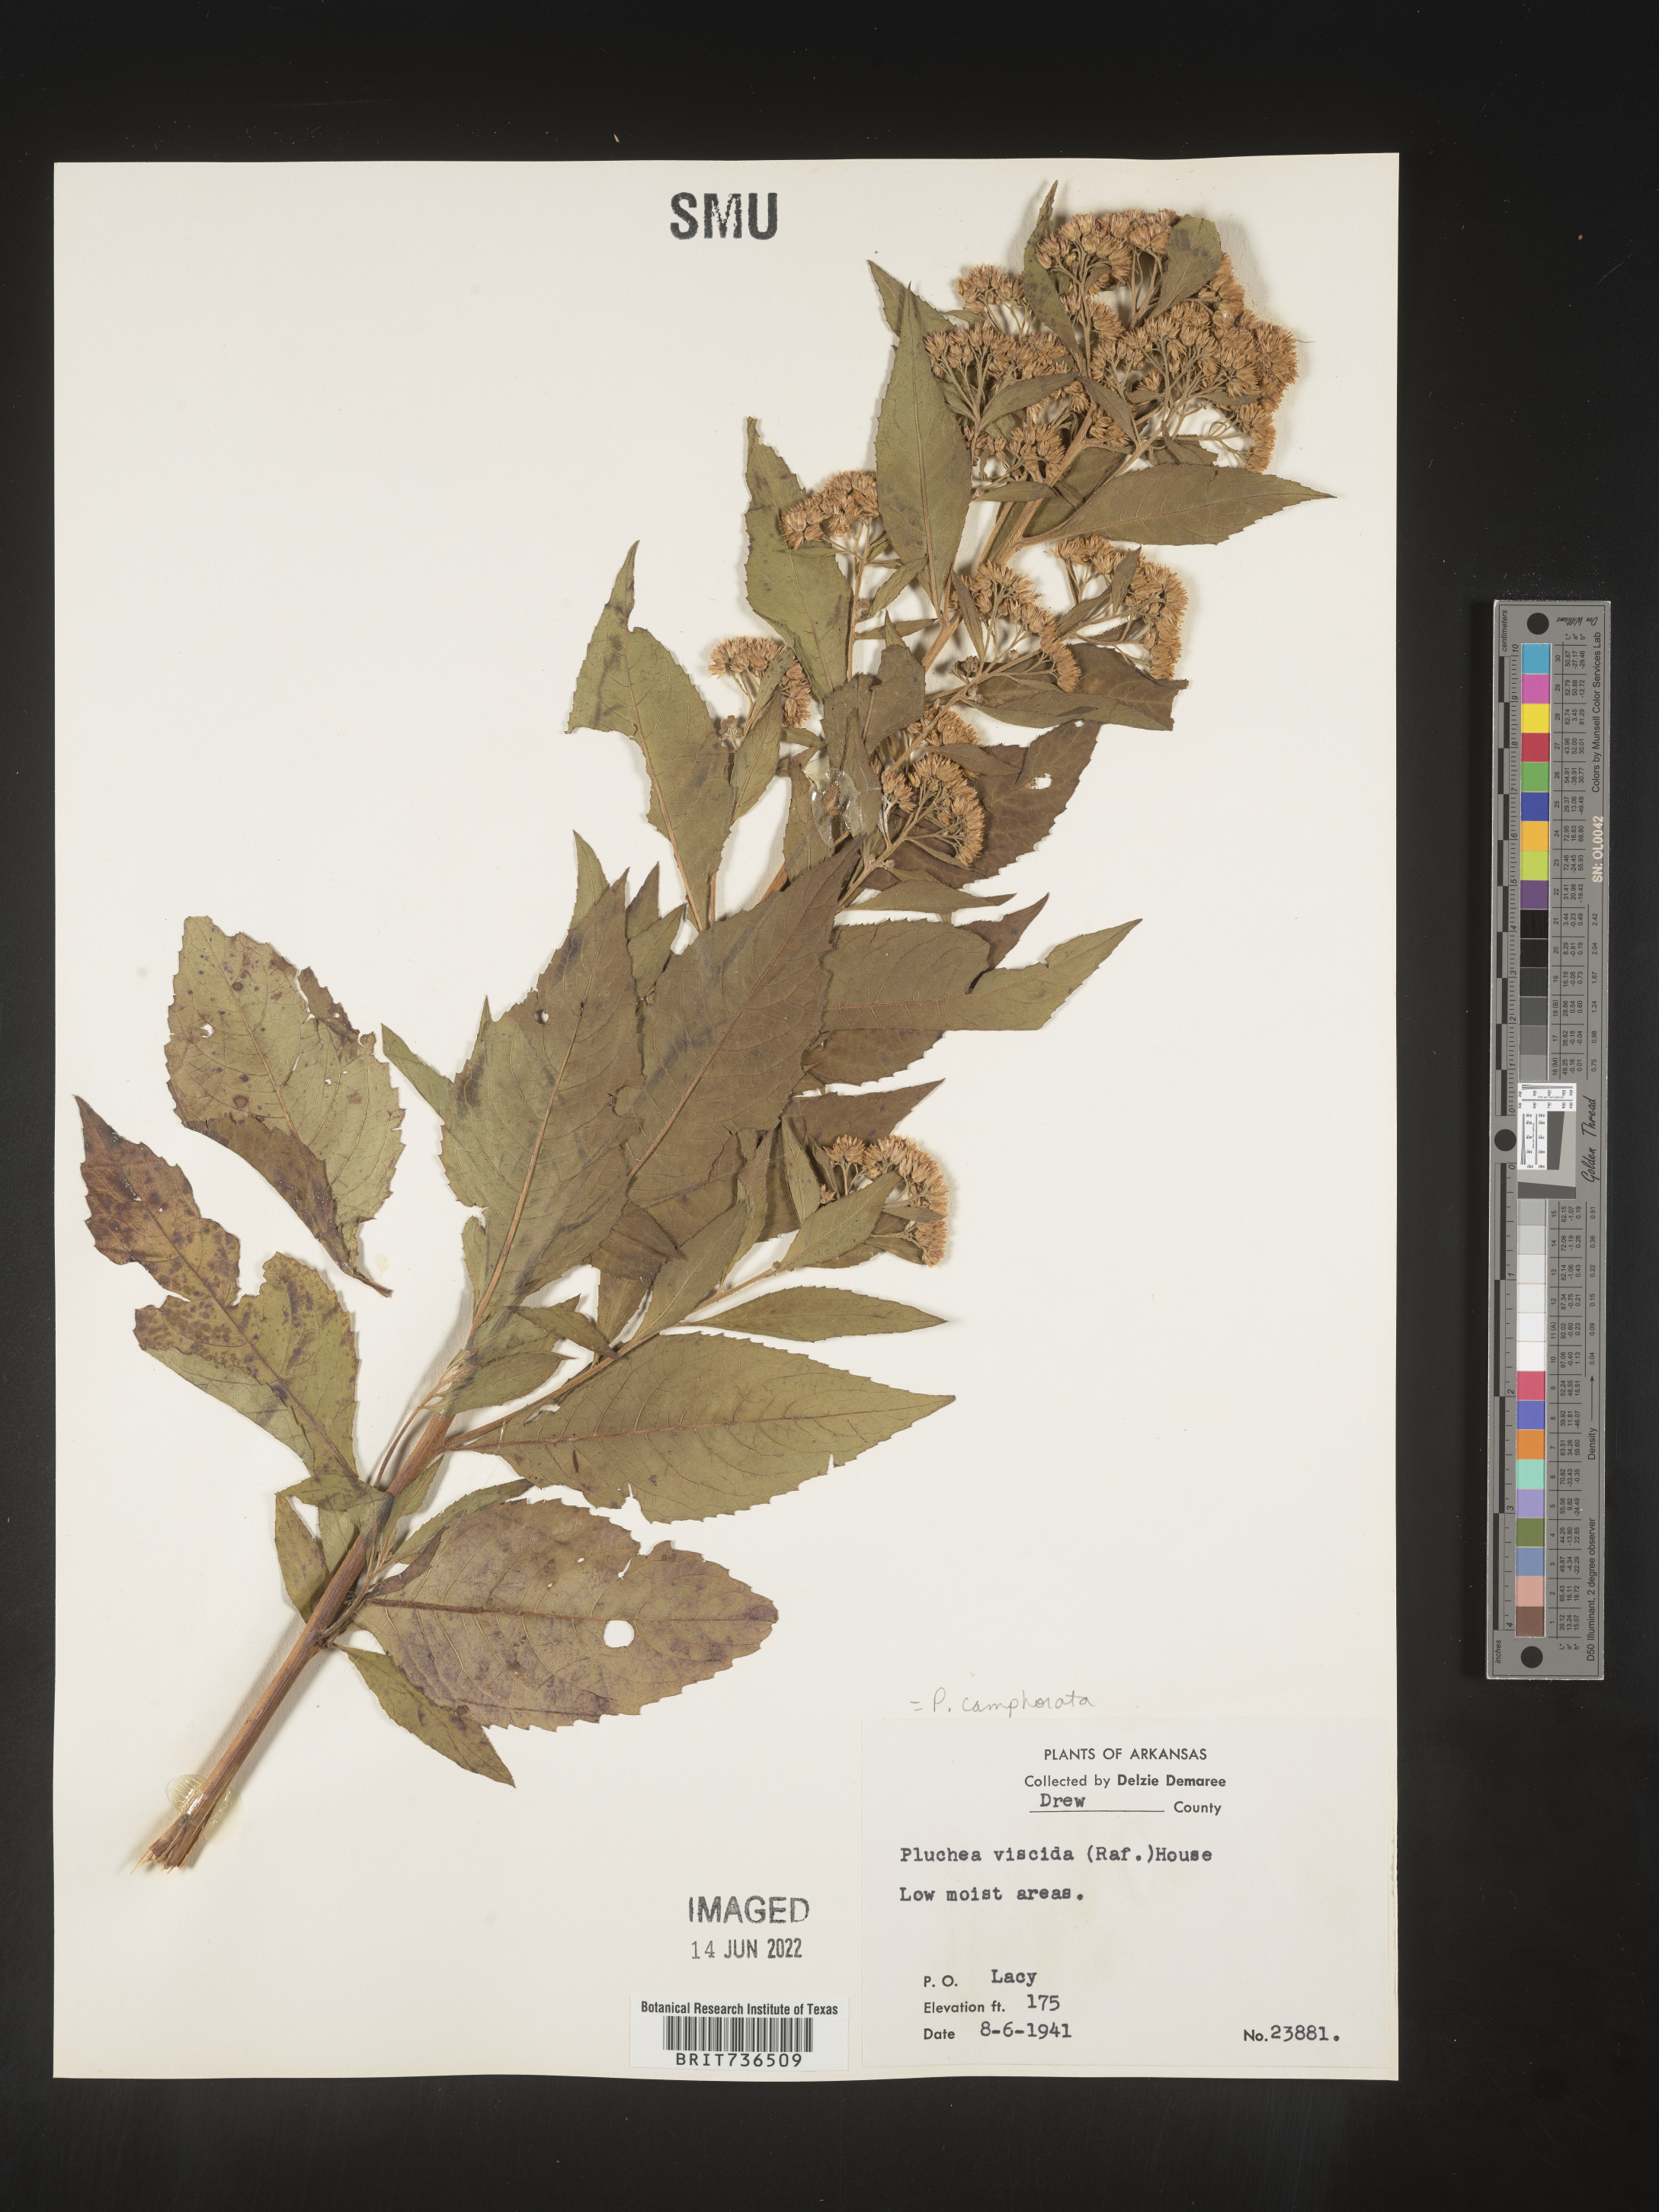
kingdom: Plantae
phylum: Tracheophyta
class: Magnoliopsida
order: Asterales
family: Asteraceae
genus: Pluchea
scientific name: Pluchea camphorata
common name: Camphor pluchea
